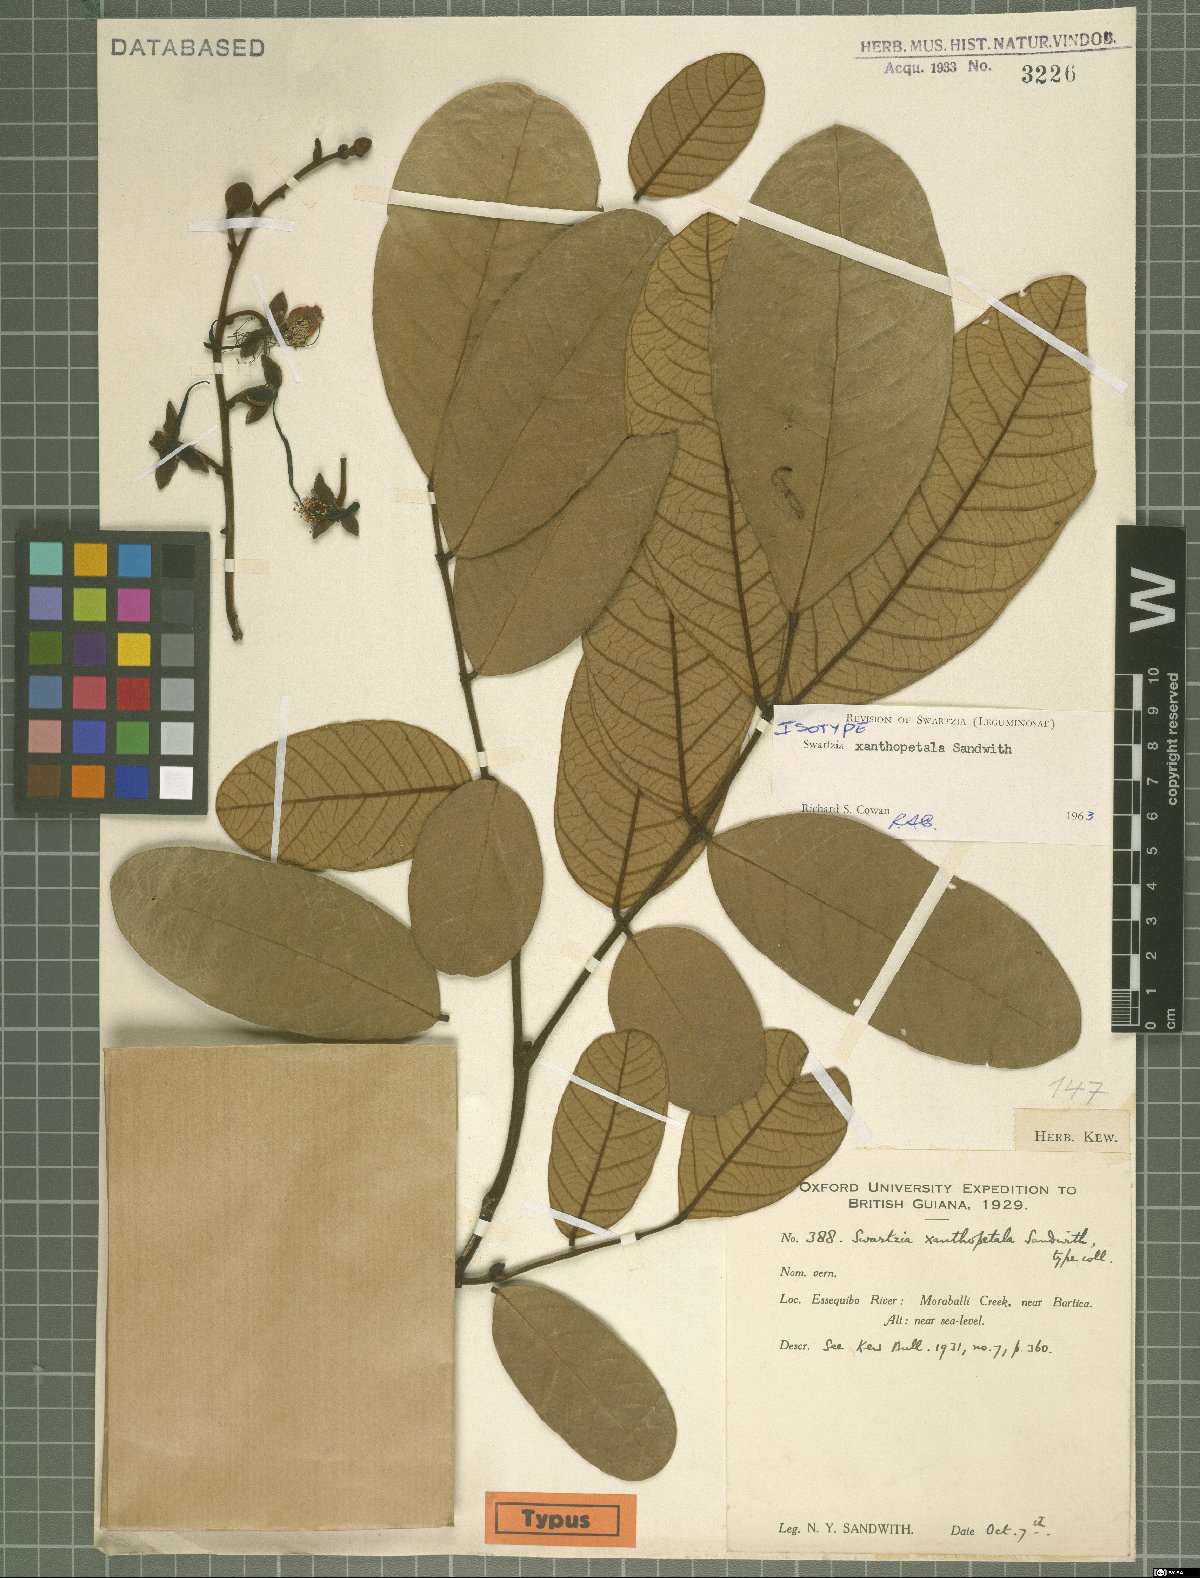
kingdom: Plantae
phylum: Tracheophyta
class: Magnoliopsida
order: Fabales
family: Fabaceae
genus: Swartzia
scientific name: Swartzia xanthopetala
